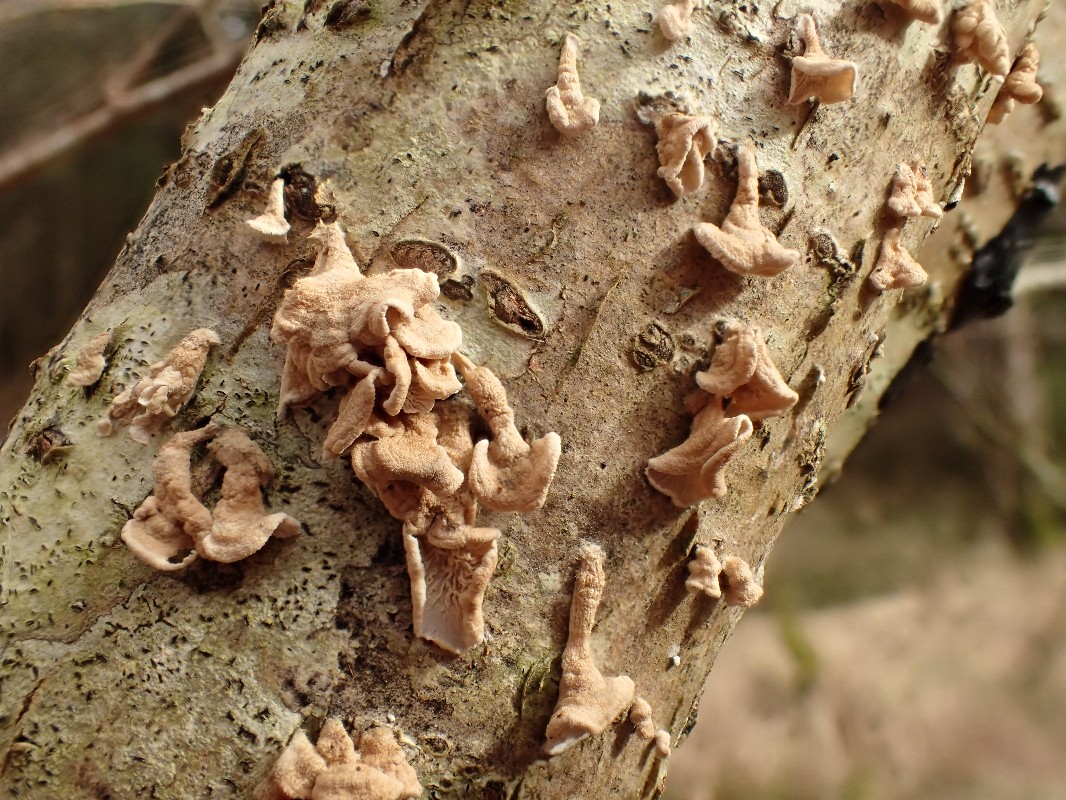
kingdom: Fungi
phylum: Basidiomycota
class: Agaricomycetes
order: Amylocorticiales
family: Amylocorticiaceae
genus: Plicaturopsis
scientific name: Plicaturopsis crispa
